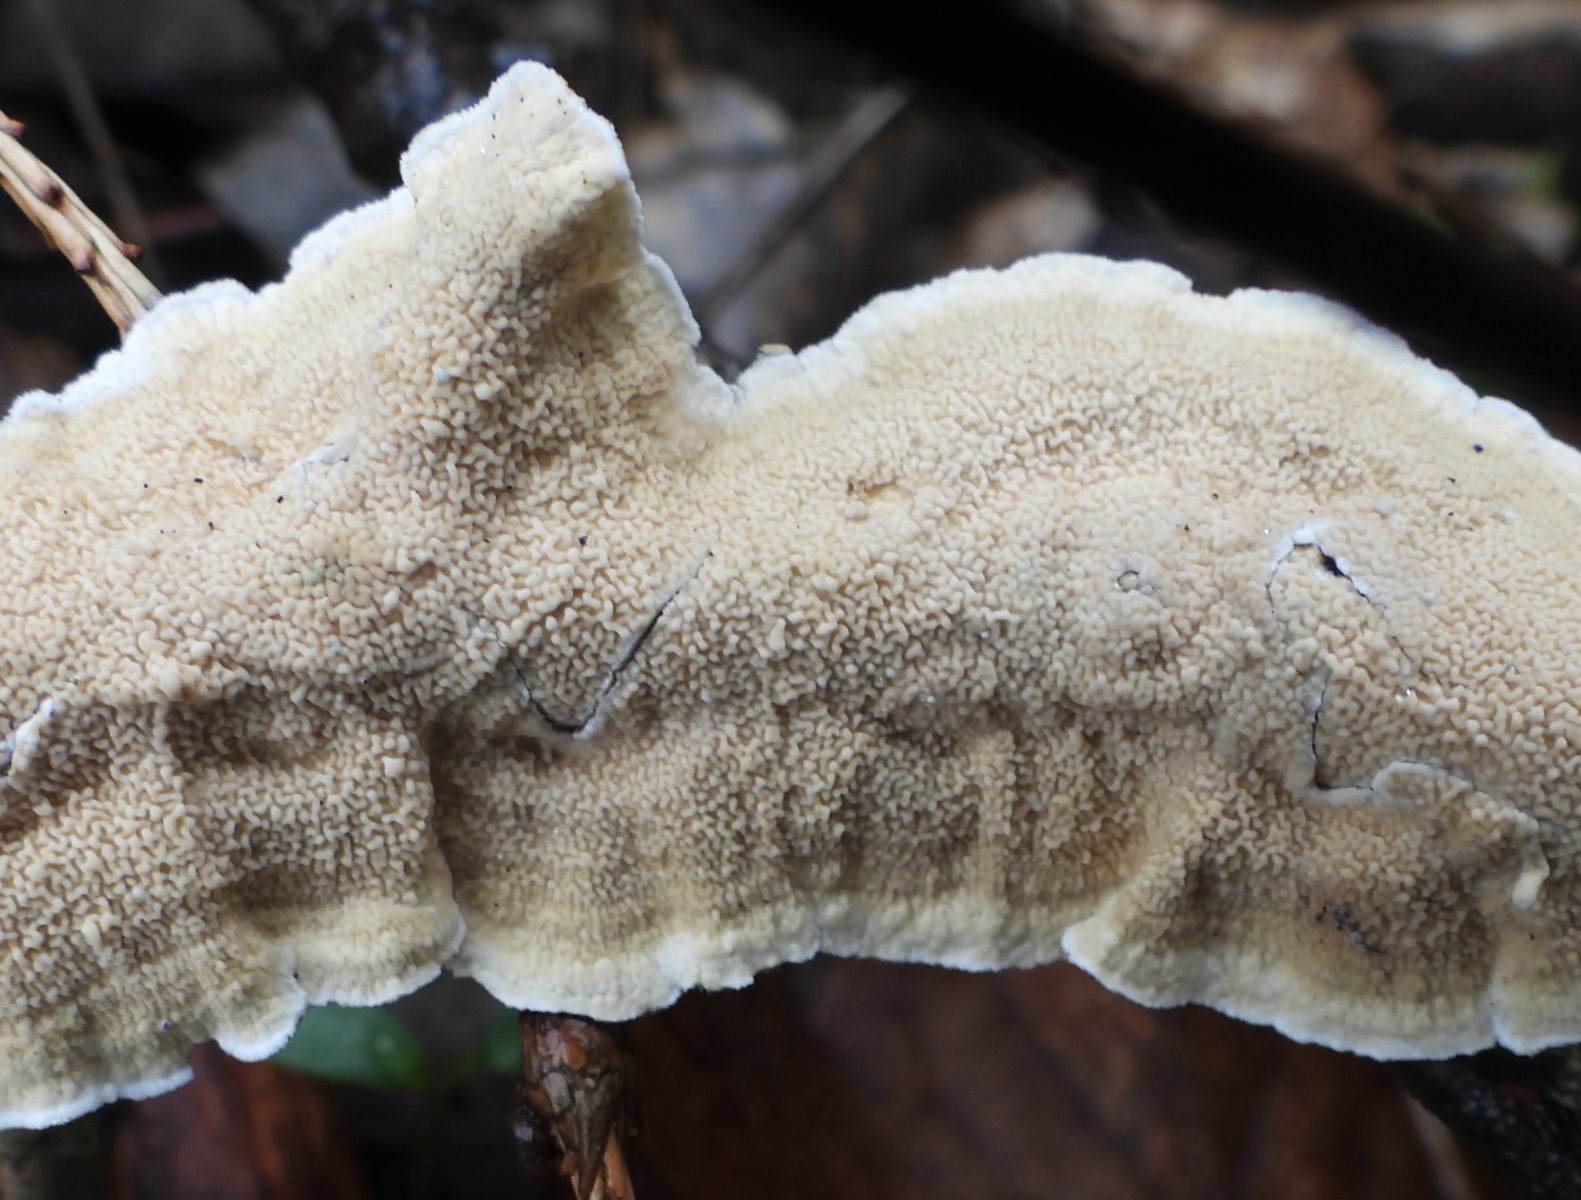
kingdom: Fungi
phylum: Basidiomycota
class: Agaricomycetes
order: Polyporales
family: Irpicaceae
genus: Byssomerulius
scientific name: Byssomerulius corium
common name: læder-åresvamp
